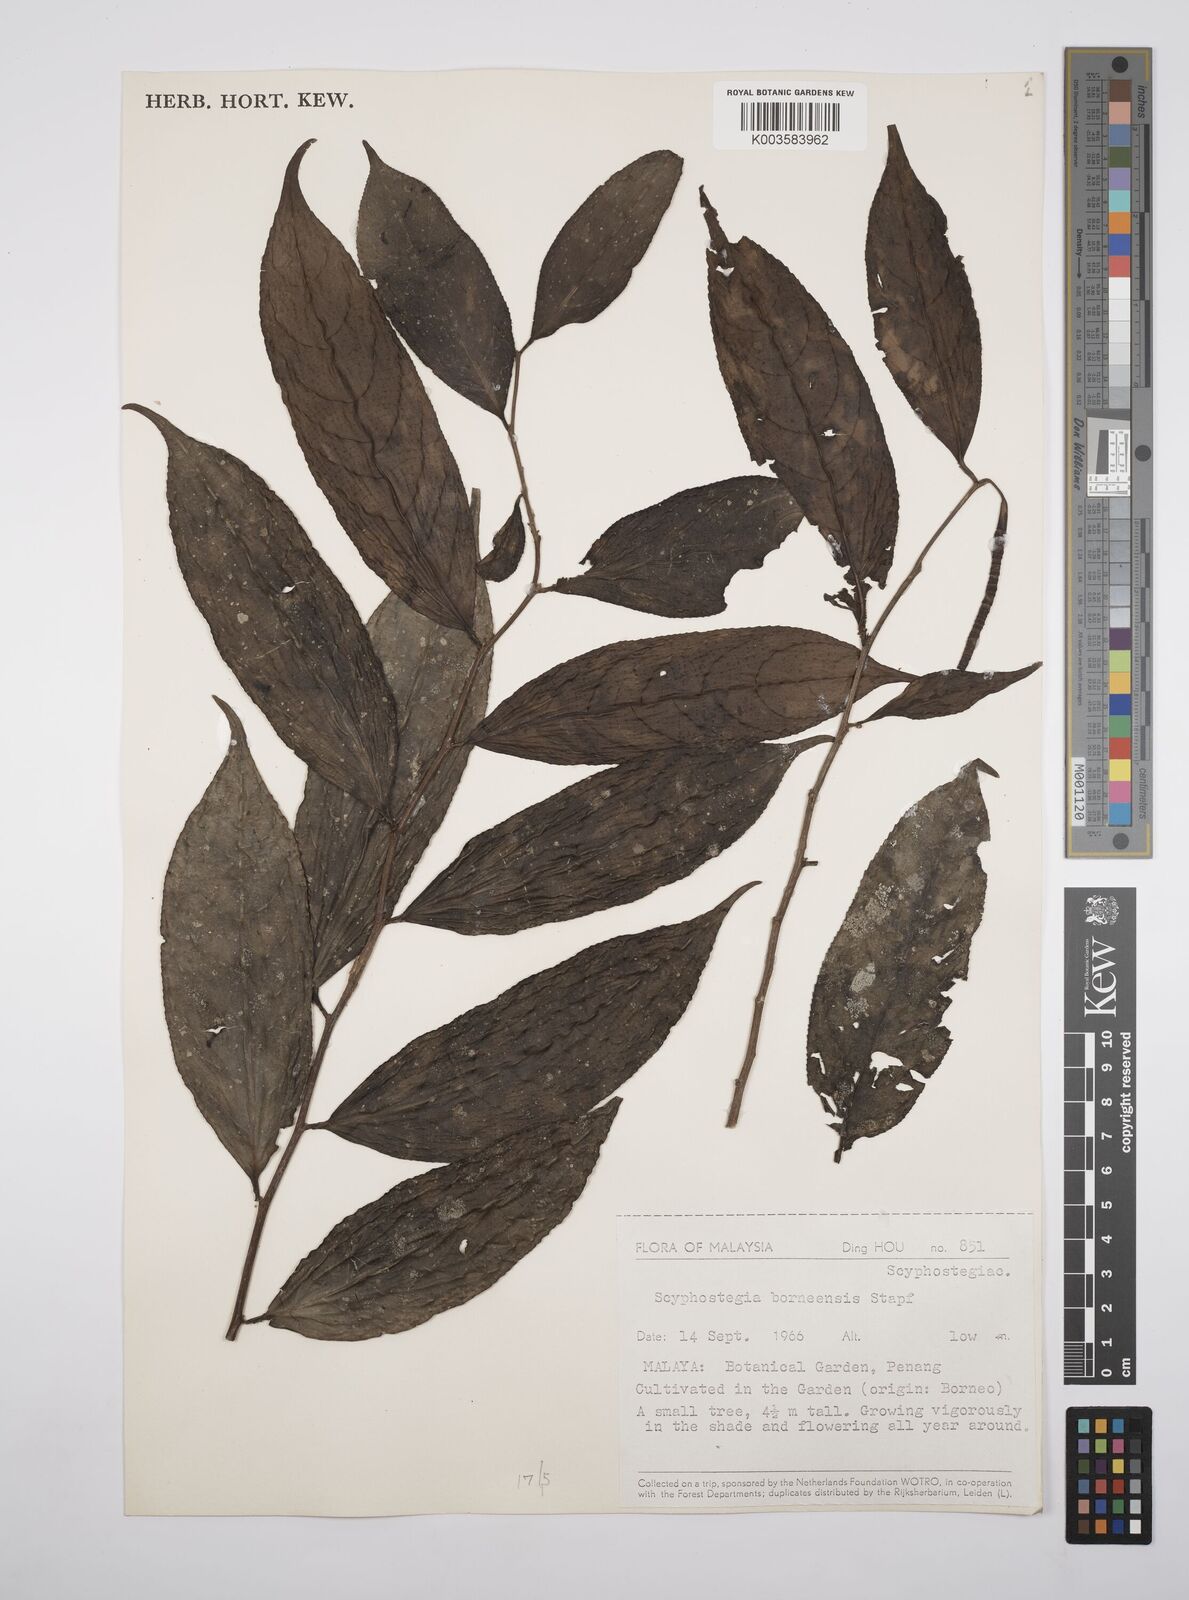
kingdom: Plantae
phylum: Tracheophyta
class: Magnoliopsida
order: Malpighiales
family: Salicaceae
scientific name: Salicaceae
